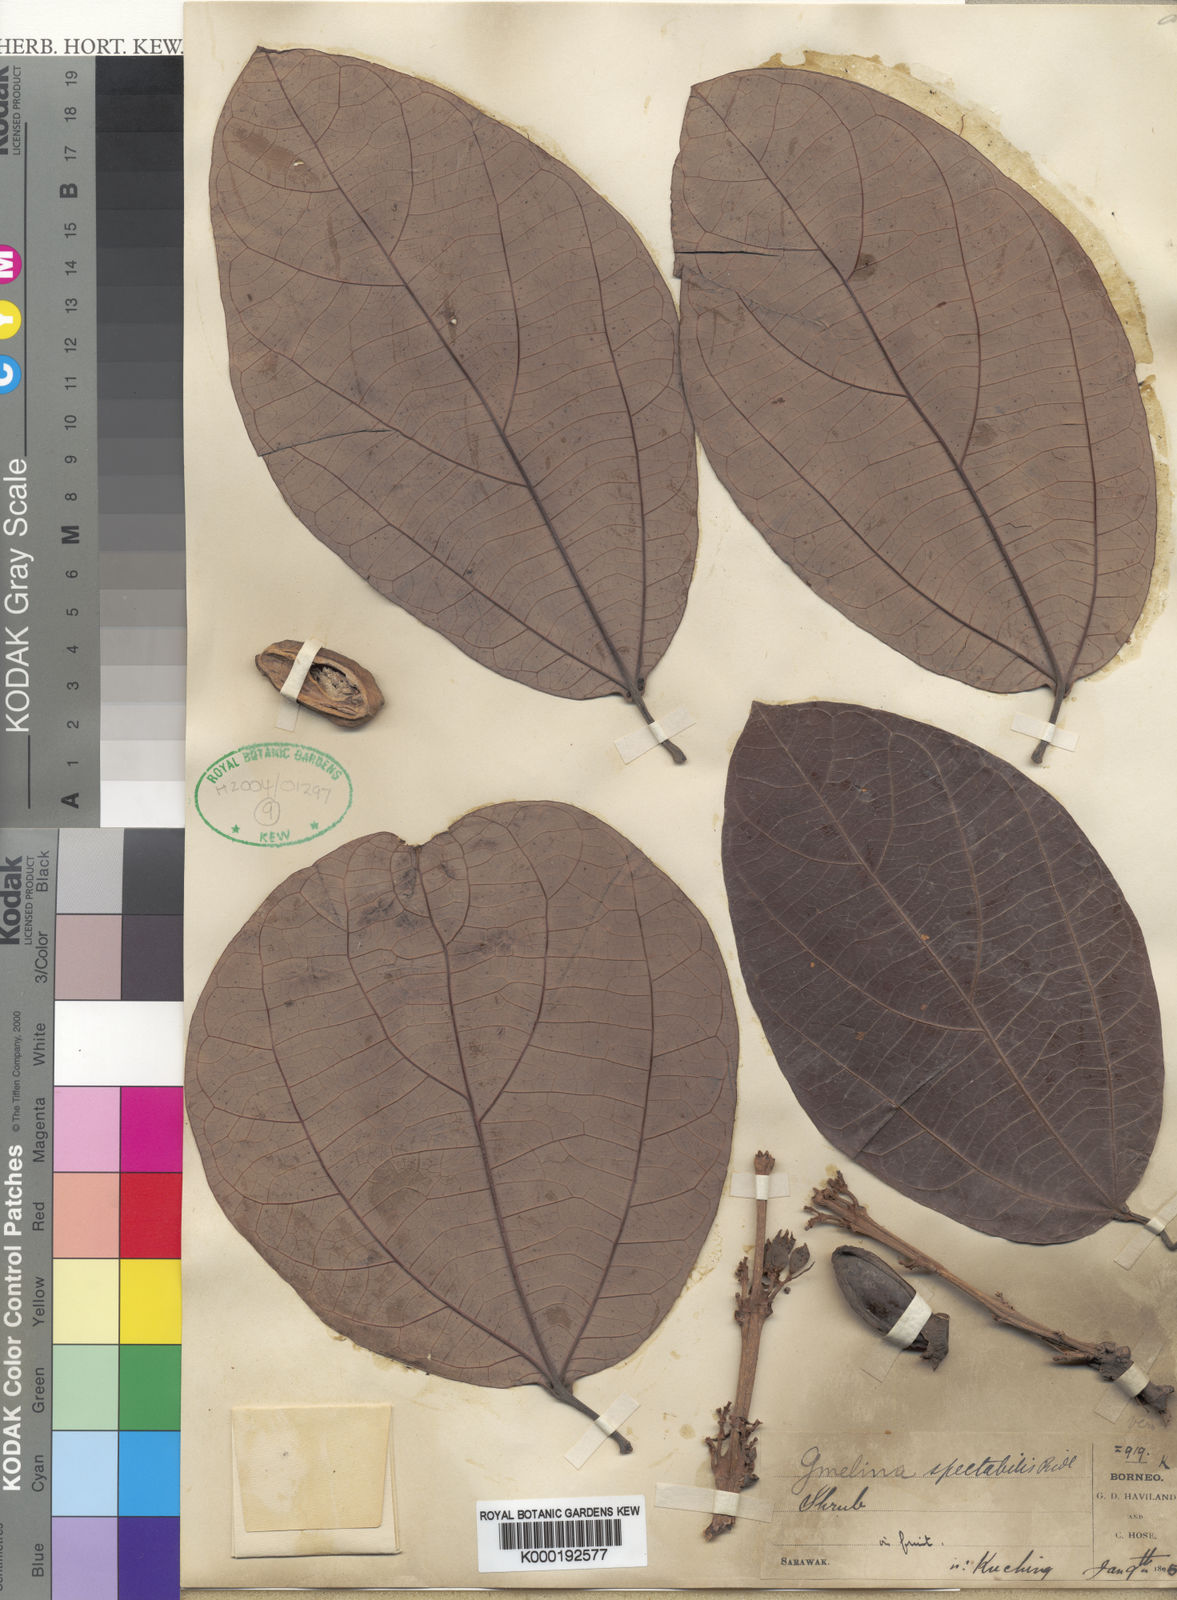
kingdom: Plantae
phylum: Tracheophyta
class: Magnoliopsida
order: Lamiales
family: Lamiaceae
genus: Gmelina
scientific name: Gmelina uniflora
